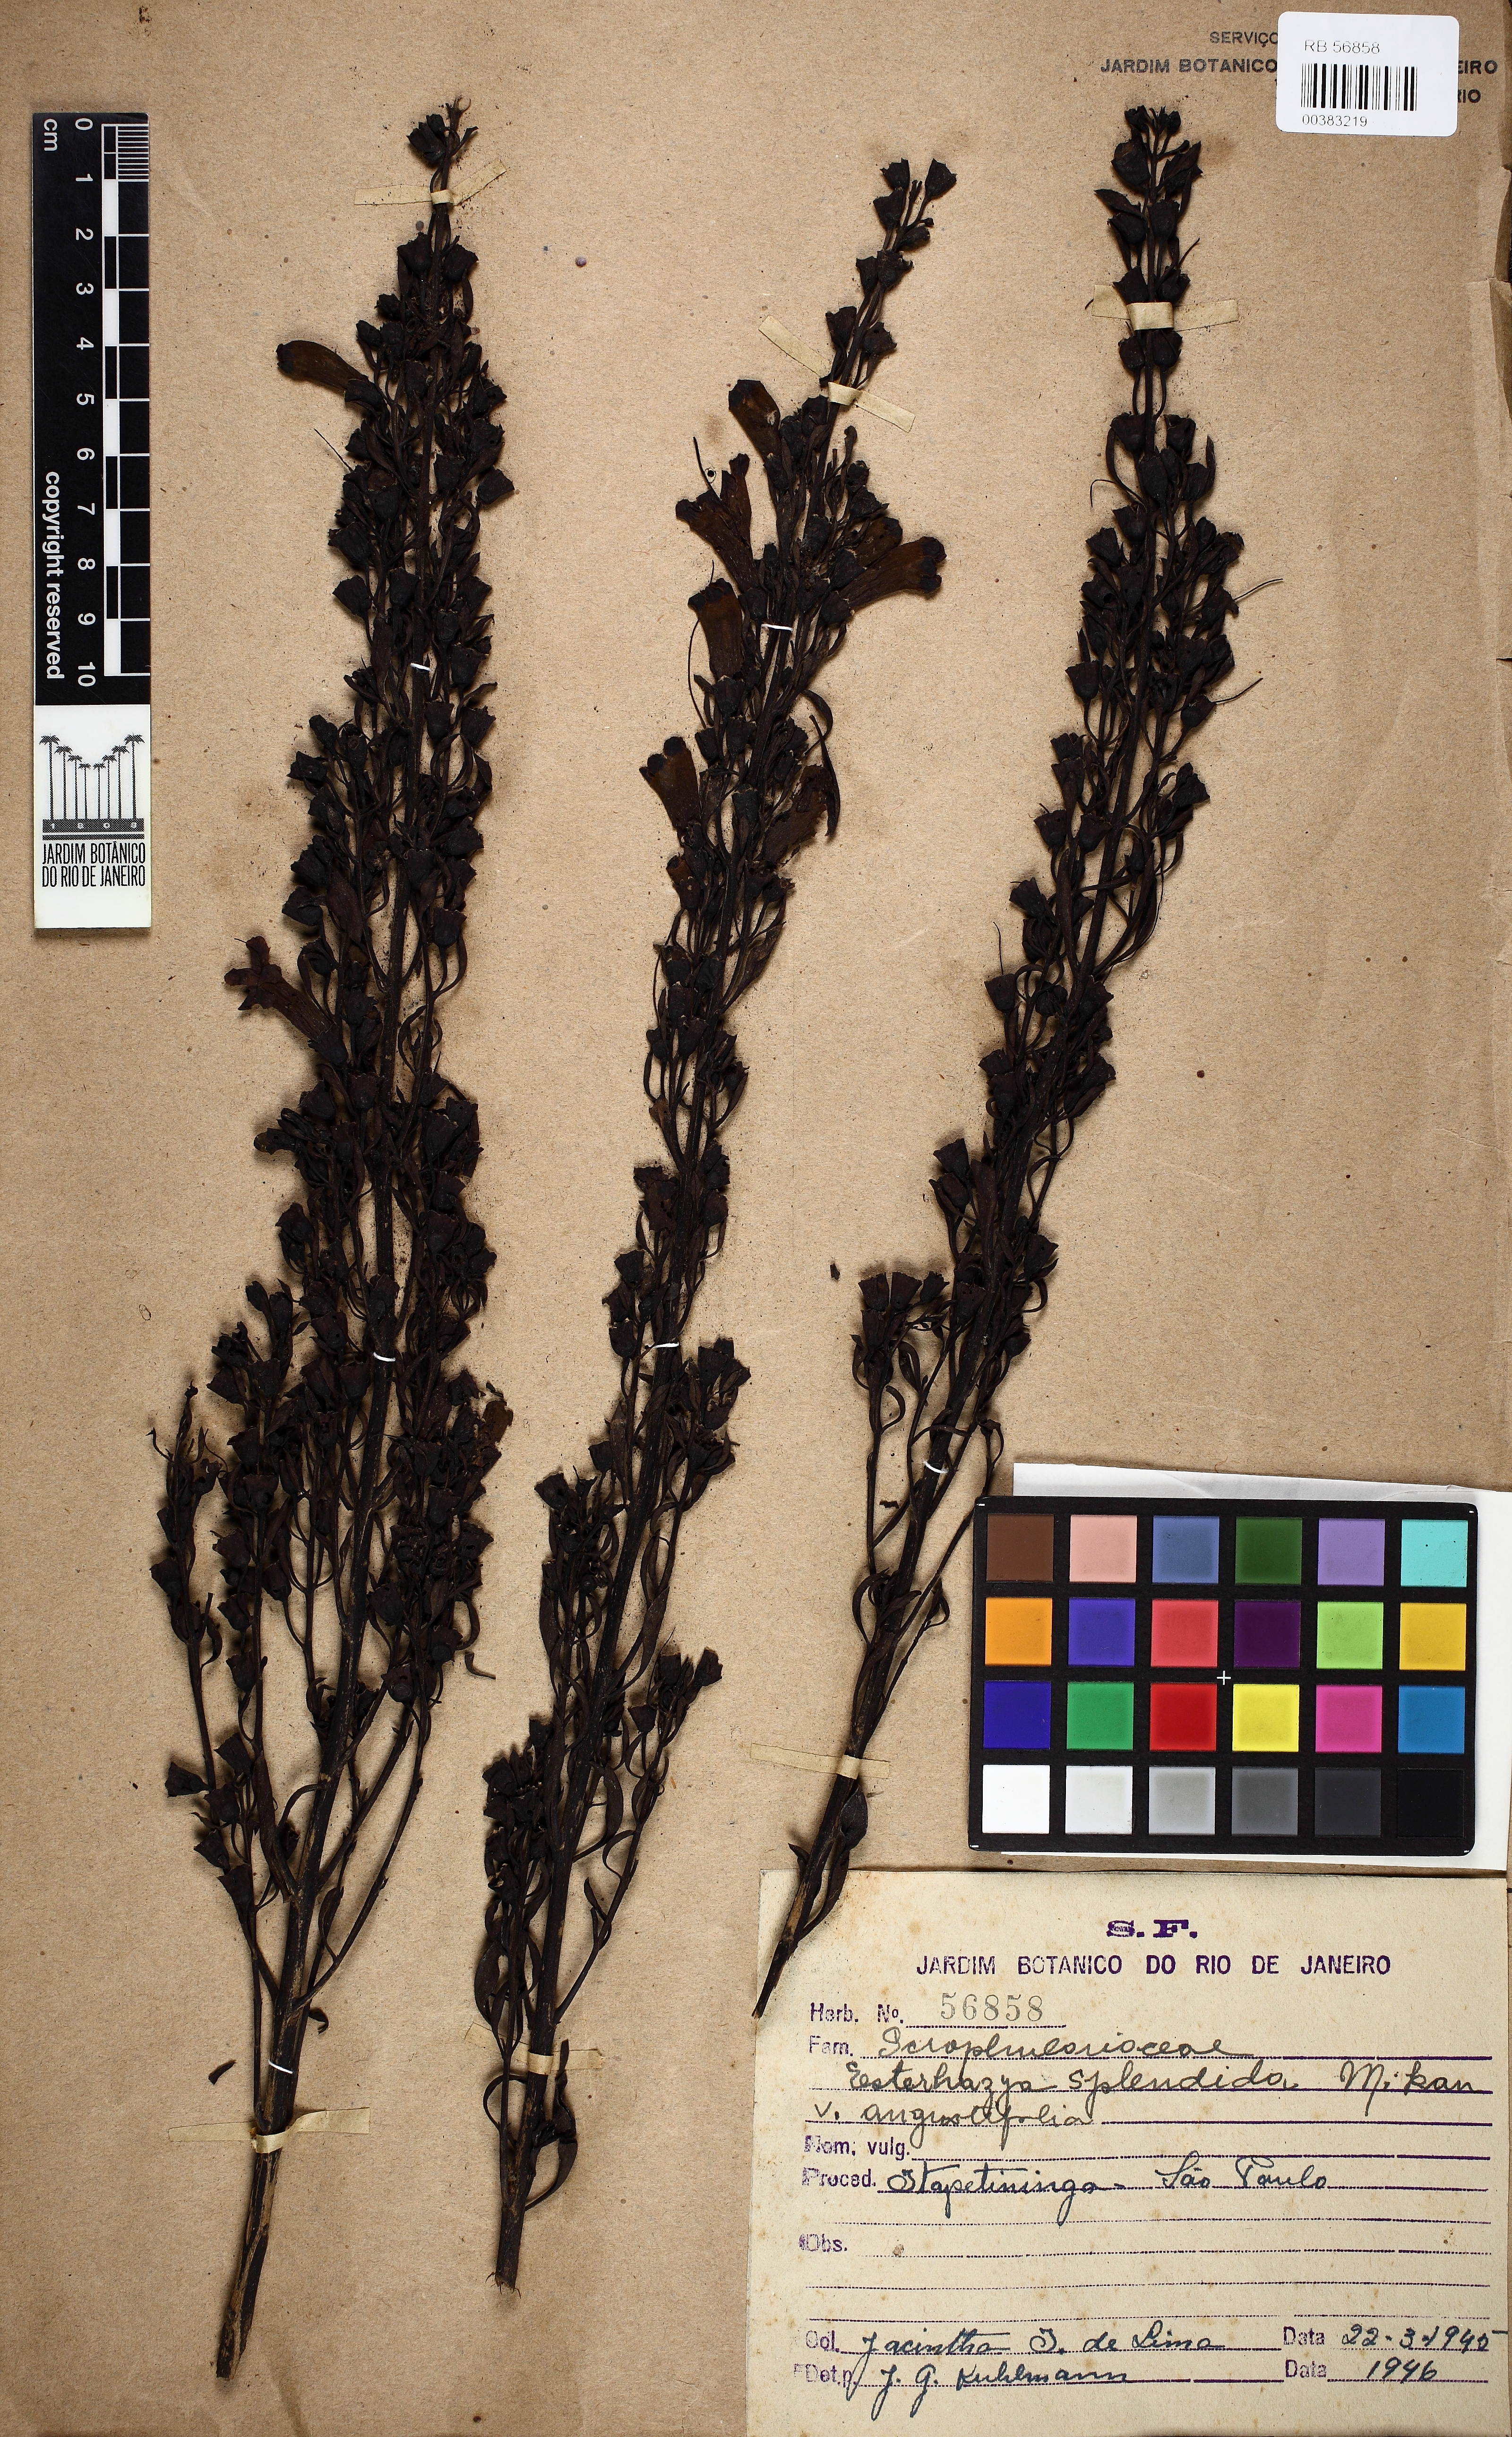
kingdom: Plantae
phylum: Tracheophyta
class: Magnoliopsida
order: Lamiales
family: Orobanchaceae
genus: Esterhazya
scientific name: Esterhazya splendida
